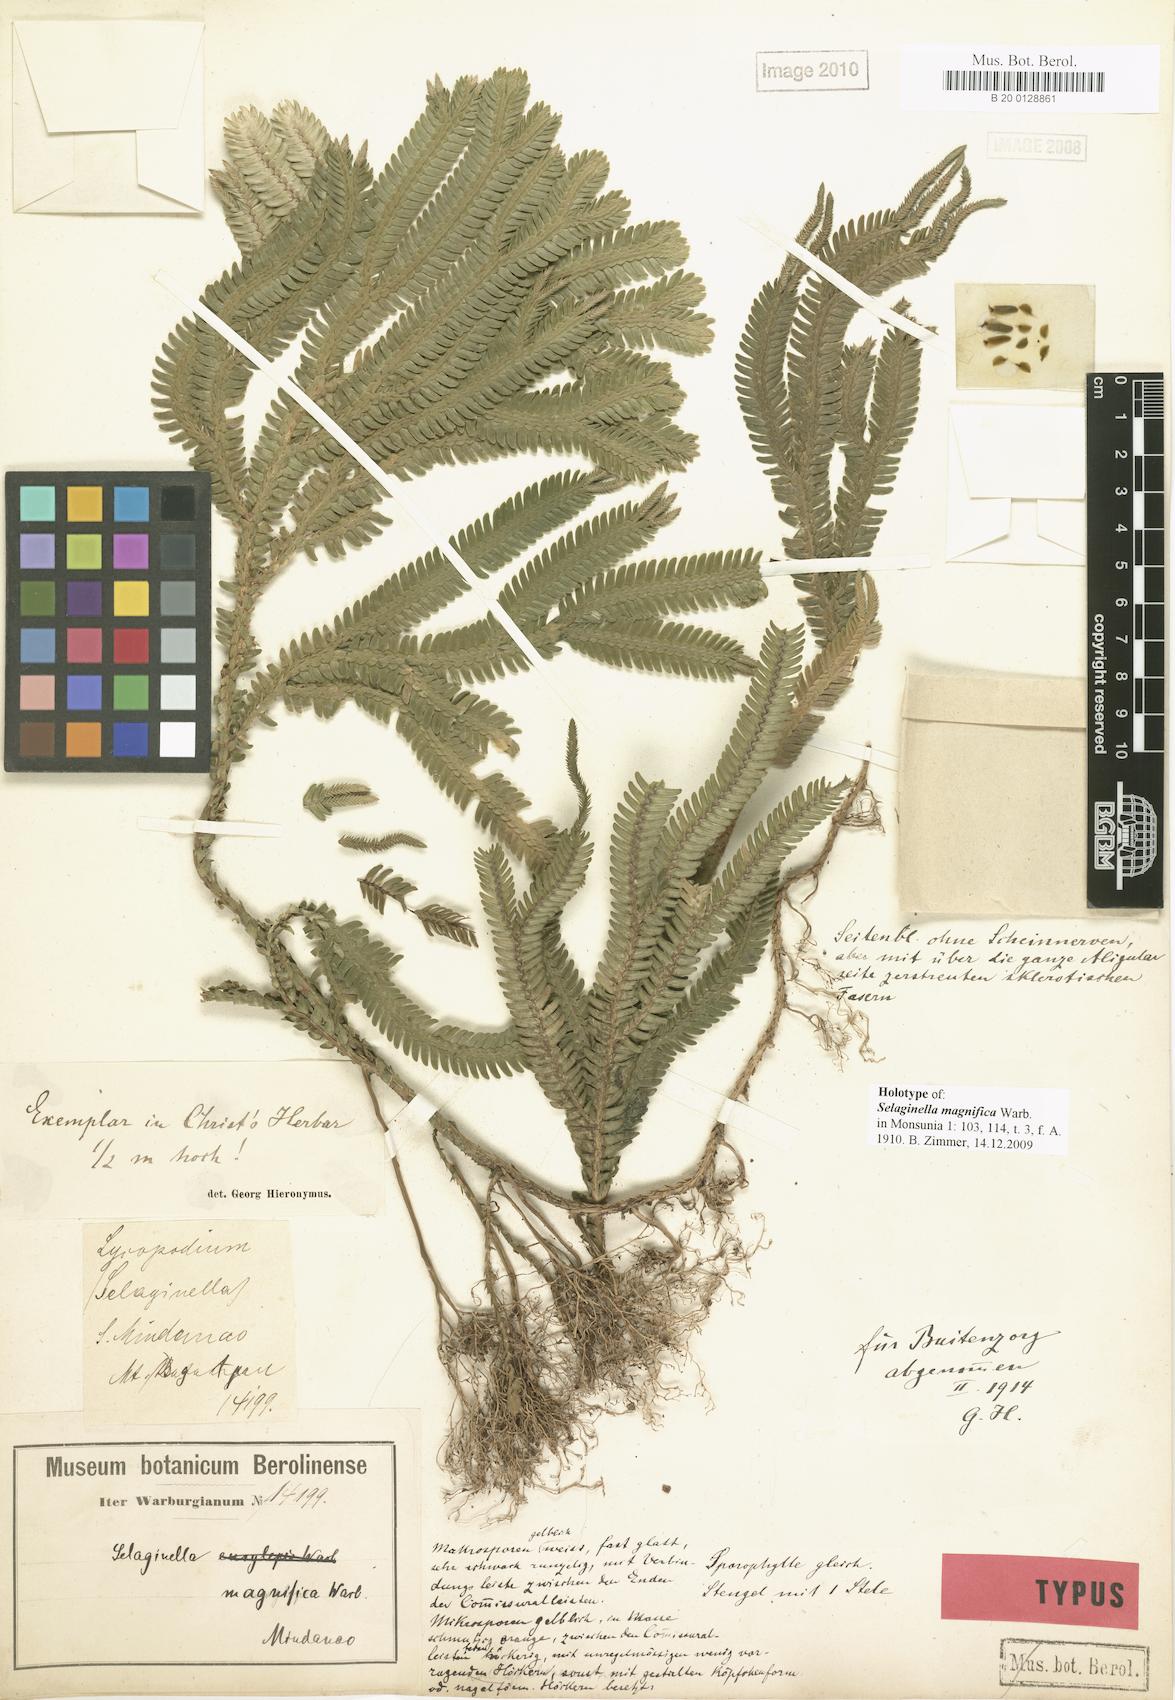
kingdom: Plantae
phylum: Tracheophyta
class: Lycopodiopsida
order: Selaginellales
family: Selaginellaceae
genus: Selaginella
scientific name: Selaginella magnifica
